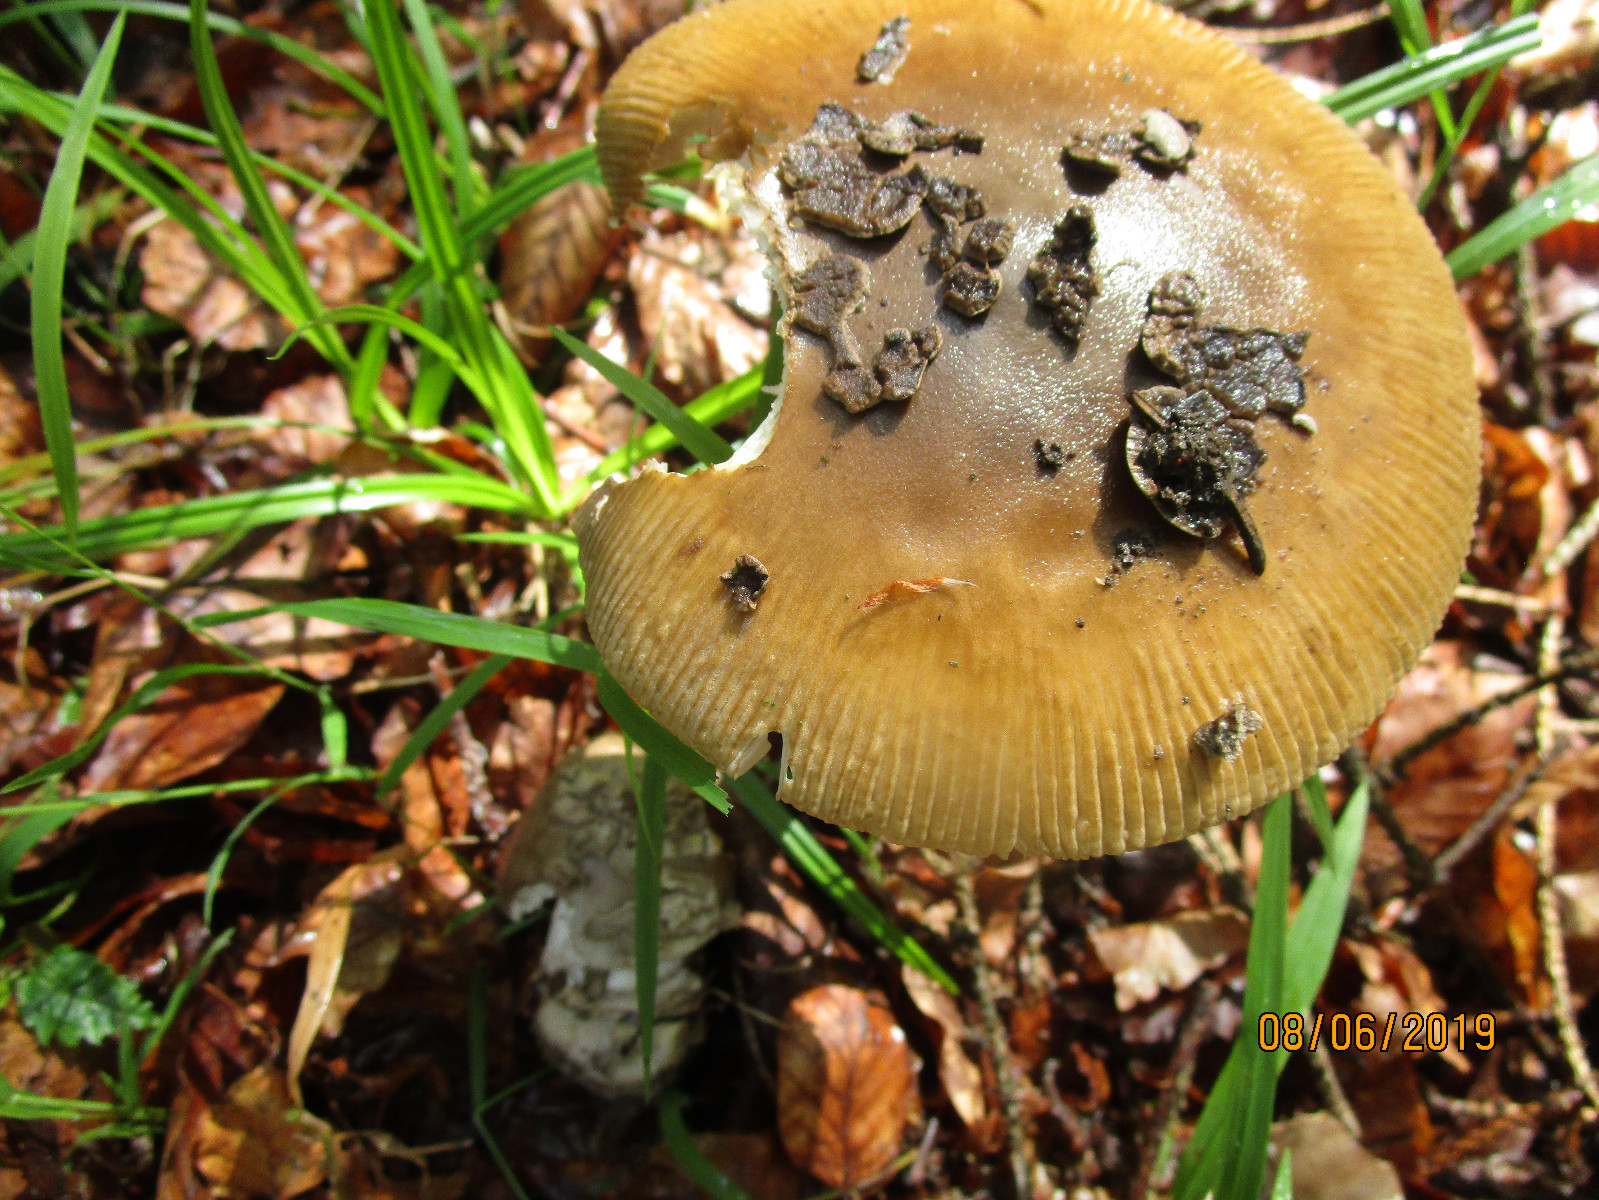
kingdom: Fungi
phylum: Basidiomycota
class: Agaricomycetes
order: Agaricales
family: Amanitaceae
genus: Amanita
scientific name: Amanita ceciliae
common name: stor kam-fluesvamp
